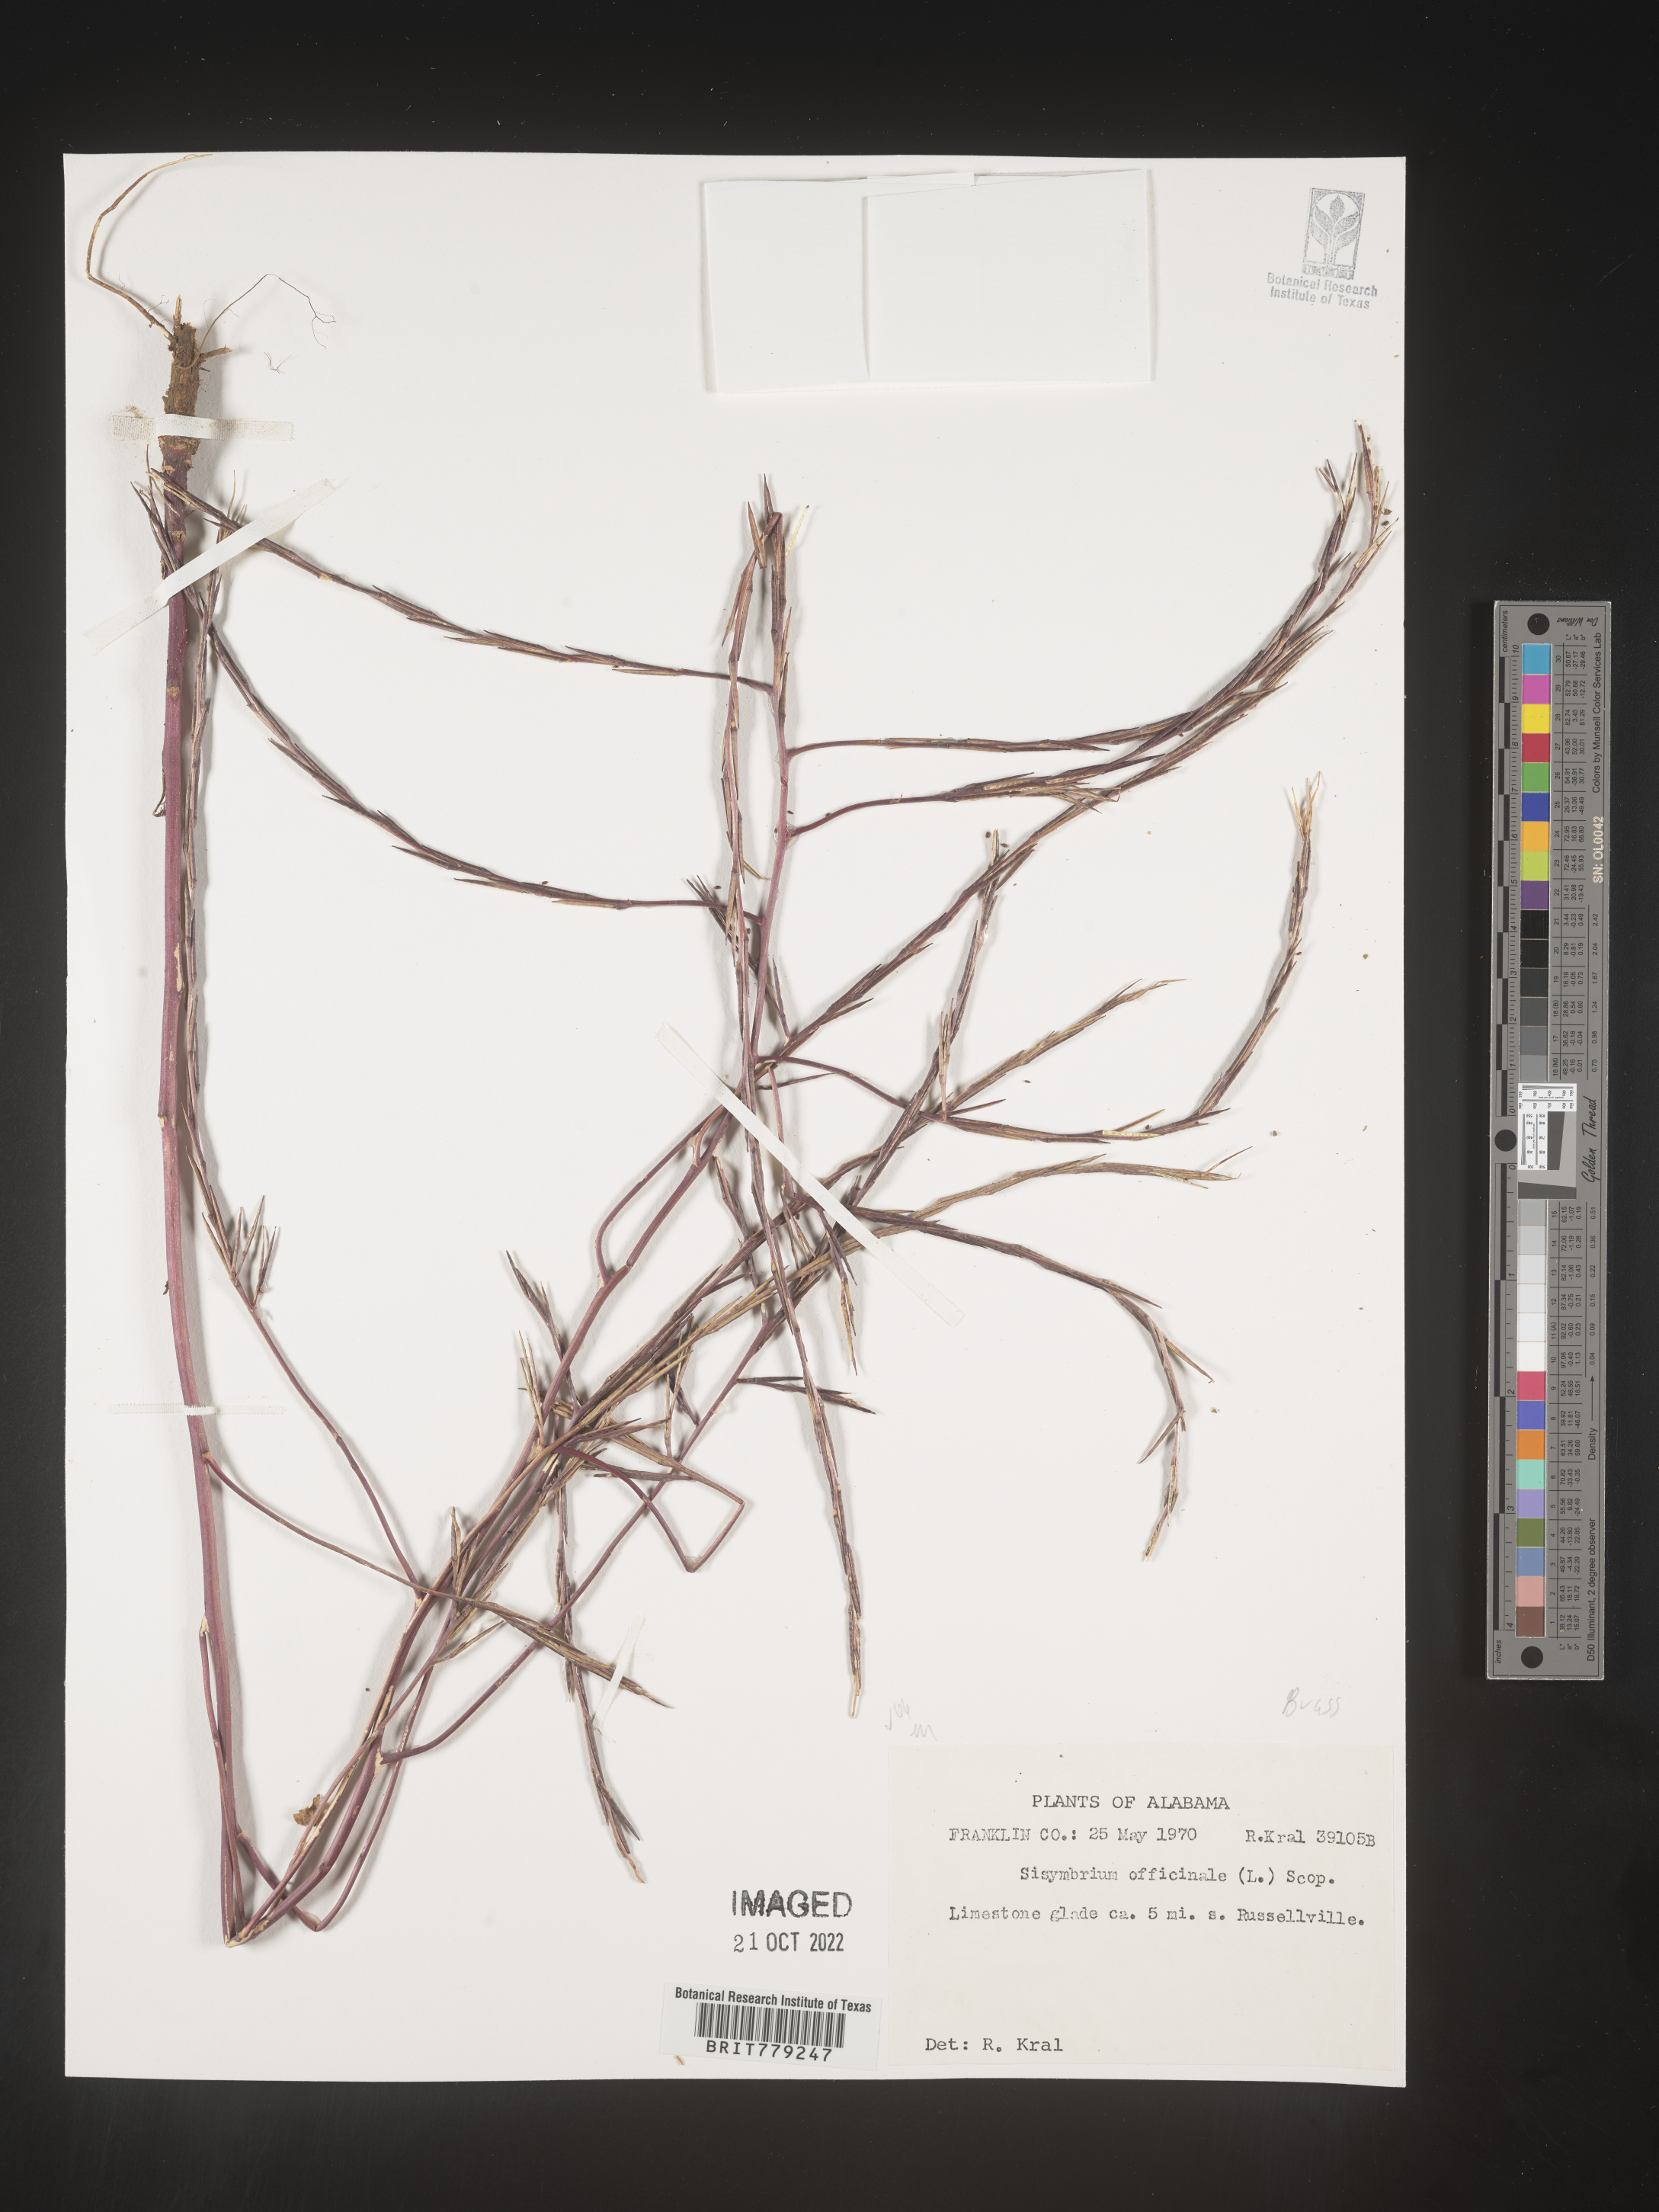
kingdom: Plantae
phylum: Tracheophyta
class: Magnoliopsida
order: Brassicales
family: Brassicaceae
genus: Sisymbrium
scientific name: Sisymbrium officinale
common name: Hedge mustard
